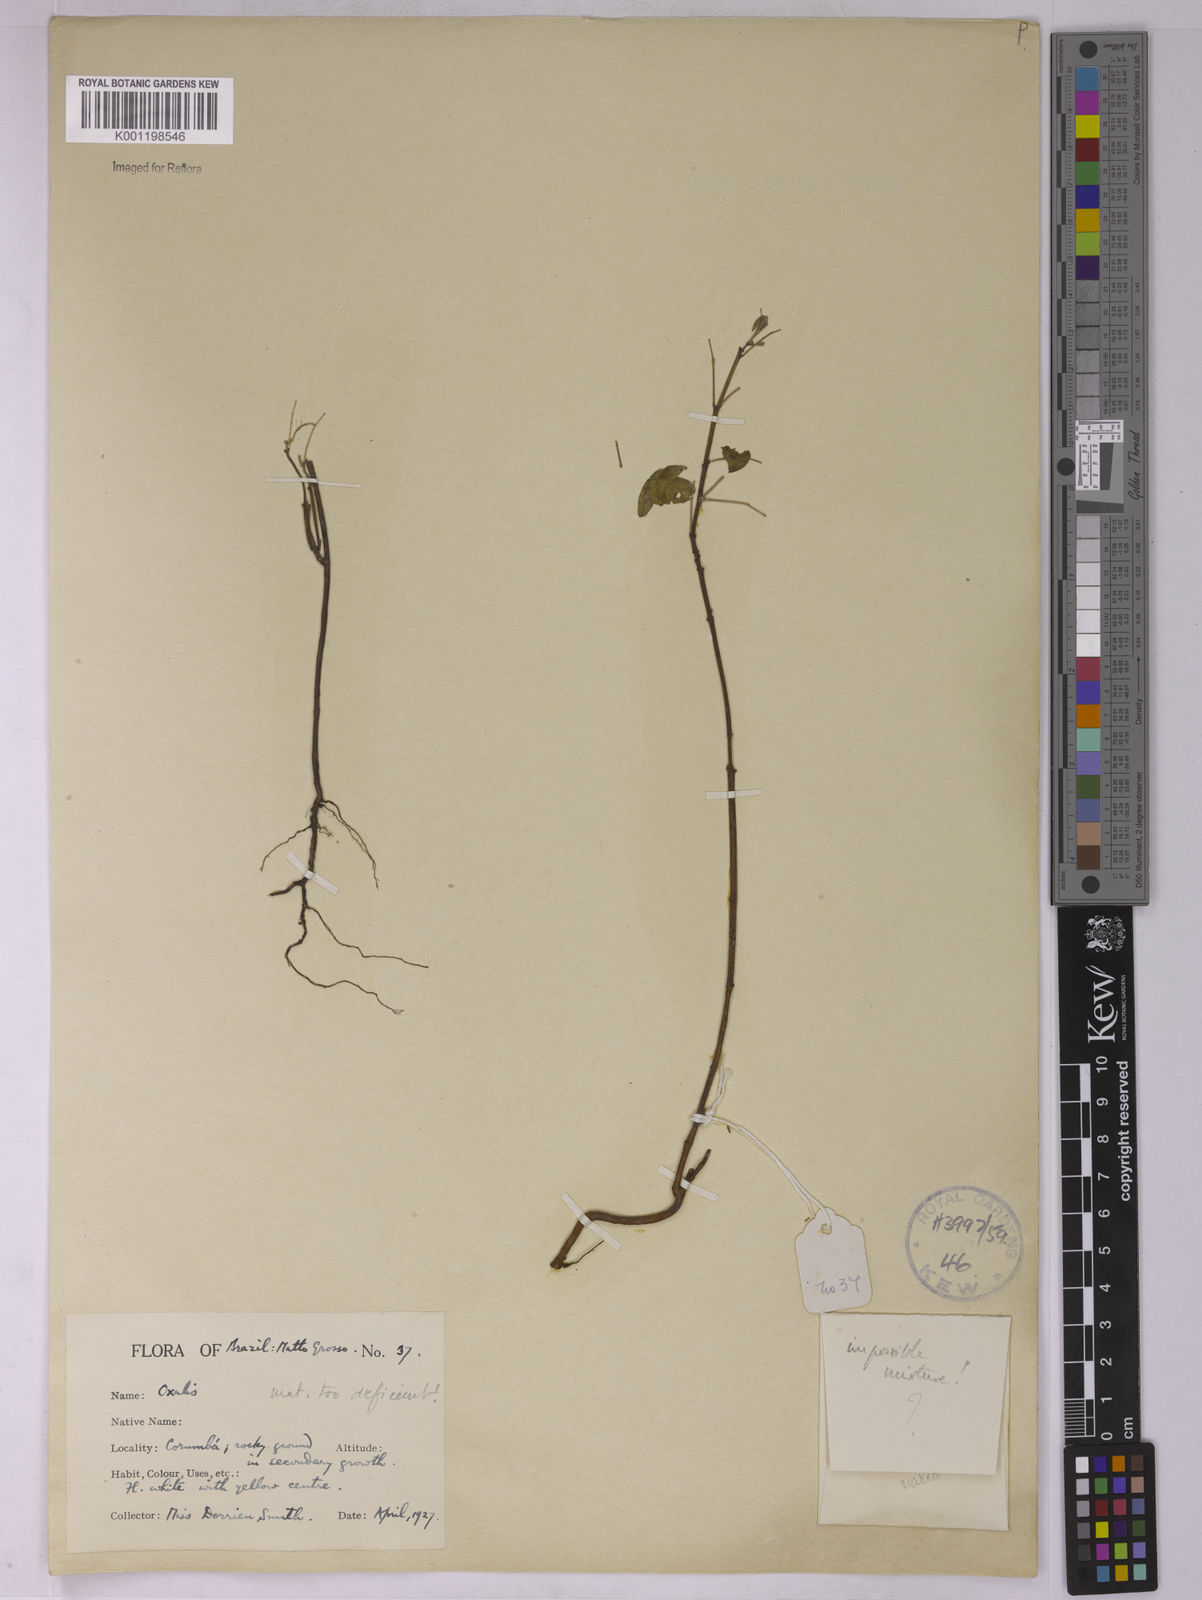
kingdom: Plantae
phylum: Tracheophyta
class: Magnoliopsida
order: Oxalidales
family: Oxalidaceae
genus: Oxalis
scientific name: Oxalis
